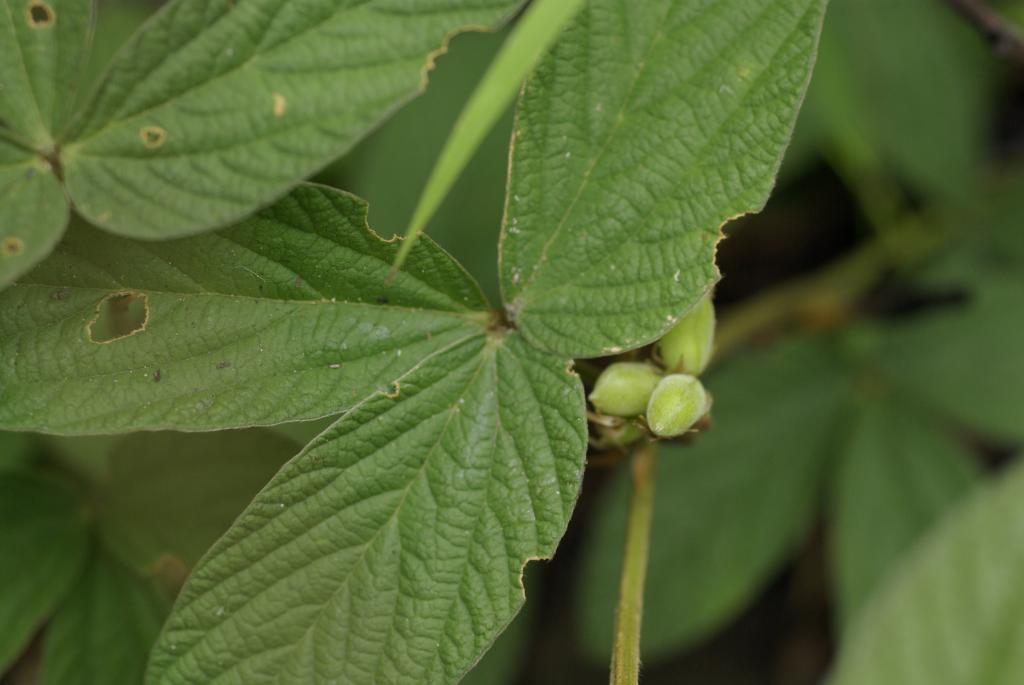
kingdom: Plantae
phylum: Tracheophyta
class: Magnoliopsida
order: Fabales
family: Fabaceae
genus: Flemingia
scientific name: Flemingia macrophylla
